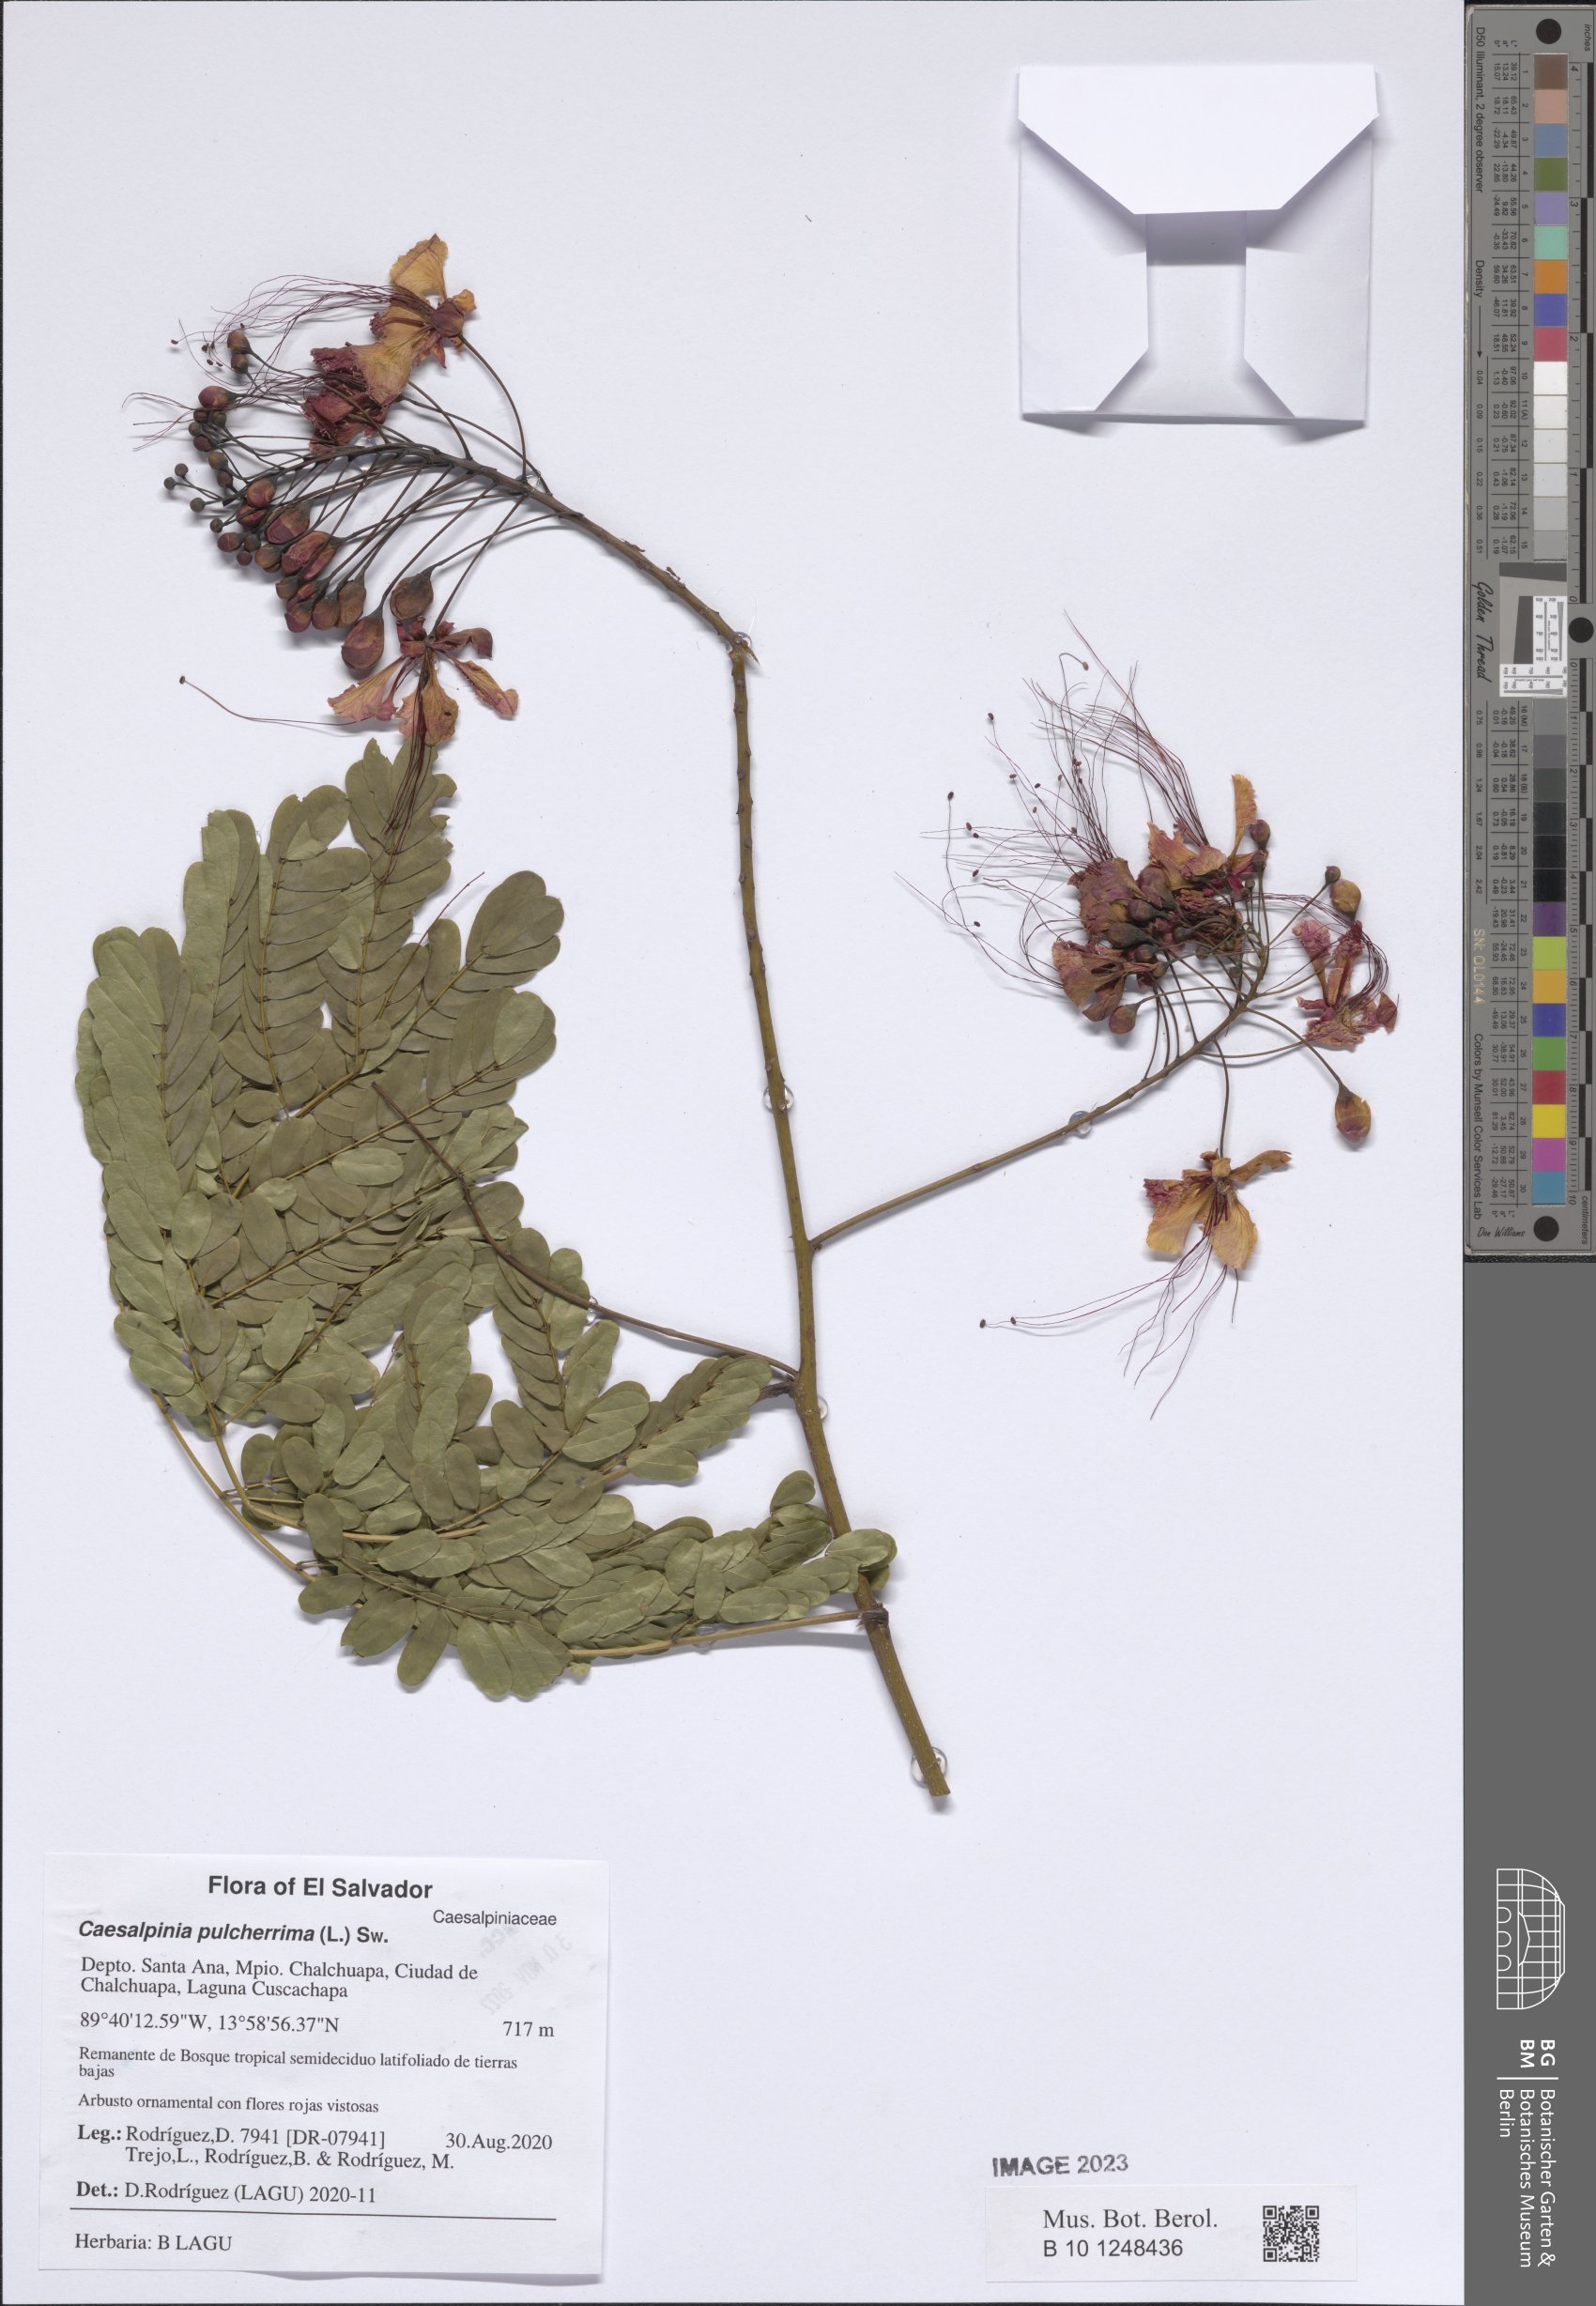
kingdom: Plantae
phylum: Tracheophyta
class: Magnoliopsida
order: Fabales
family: Fabaceae
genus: Caesalpinia
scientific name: Caesalpinia pulcherrima
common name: Pride-of-barbados
